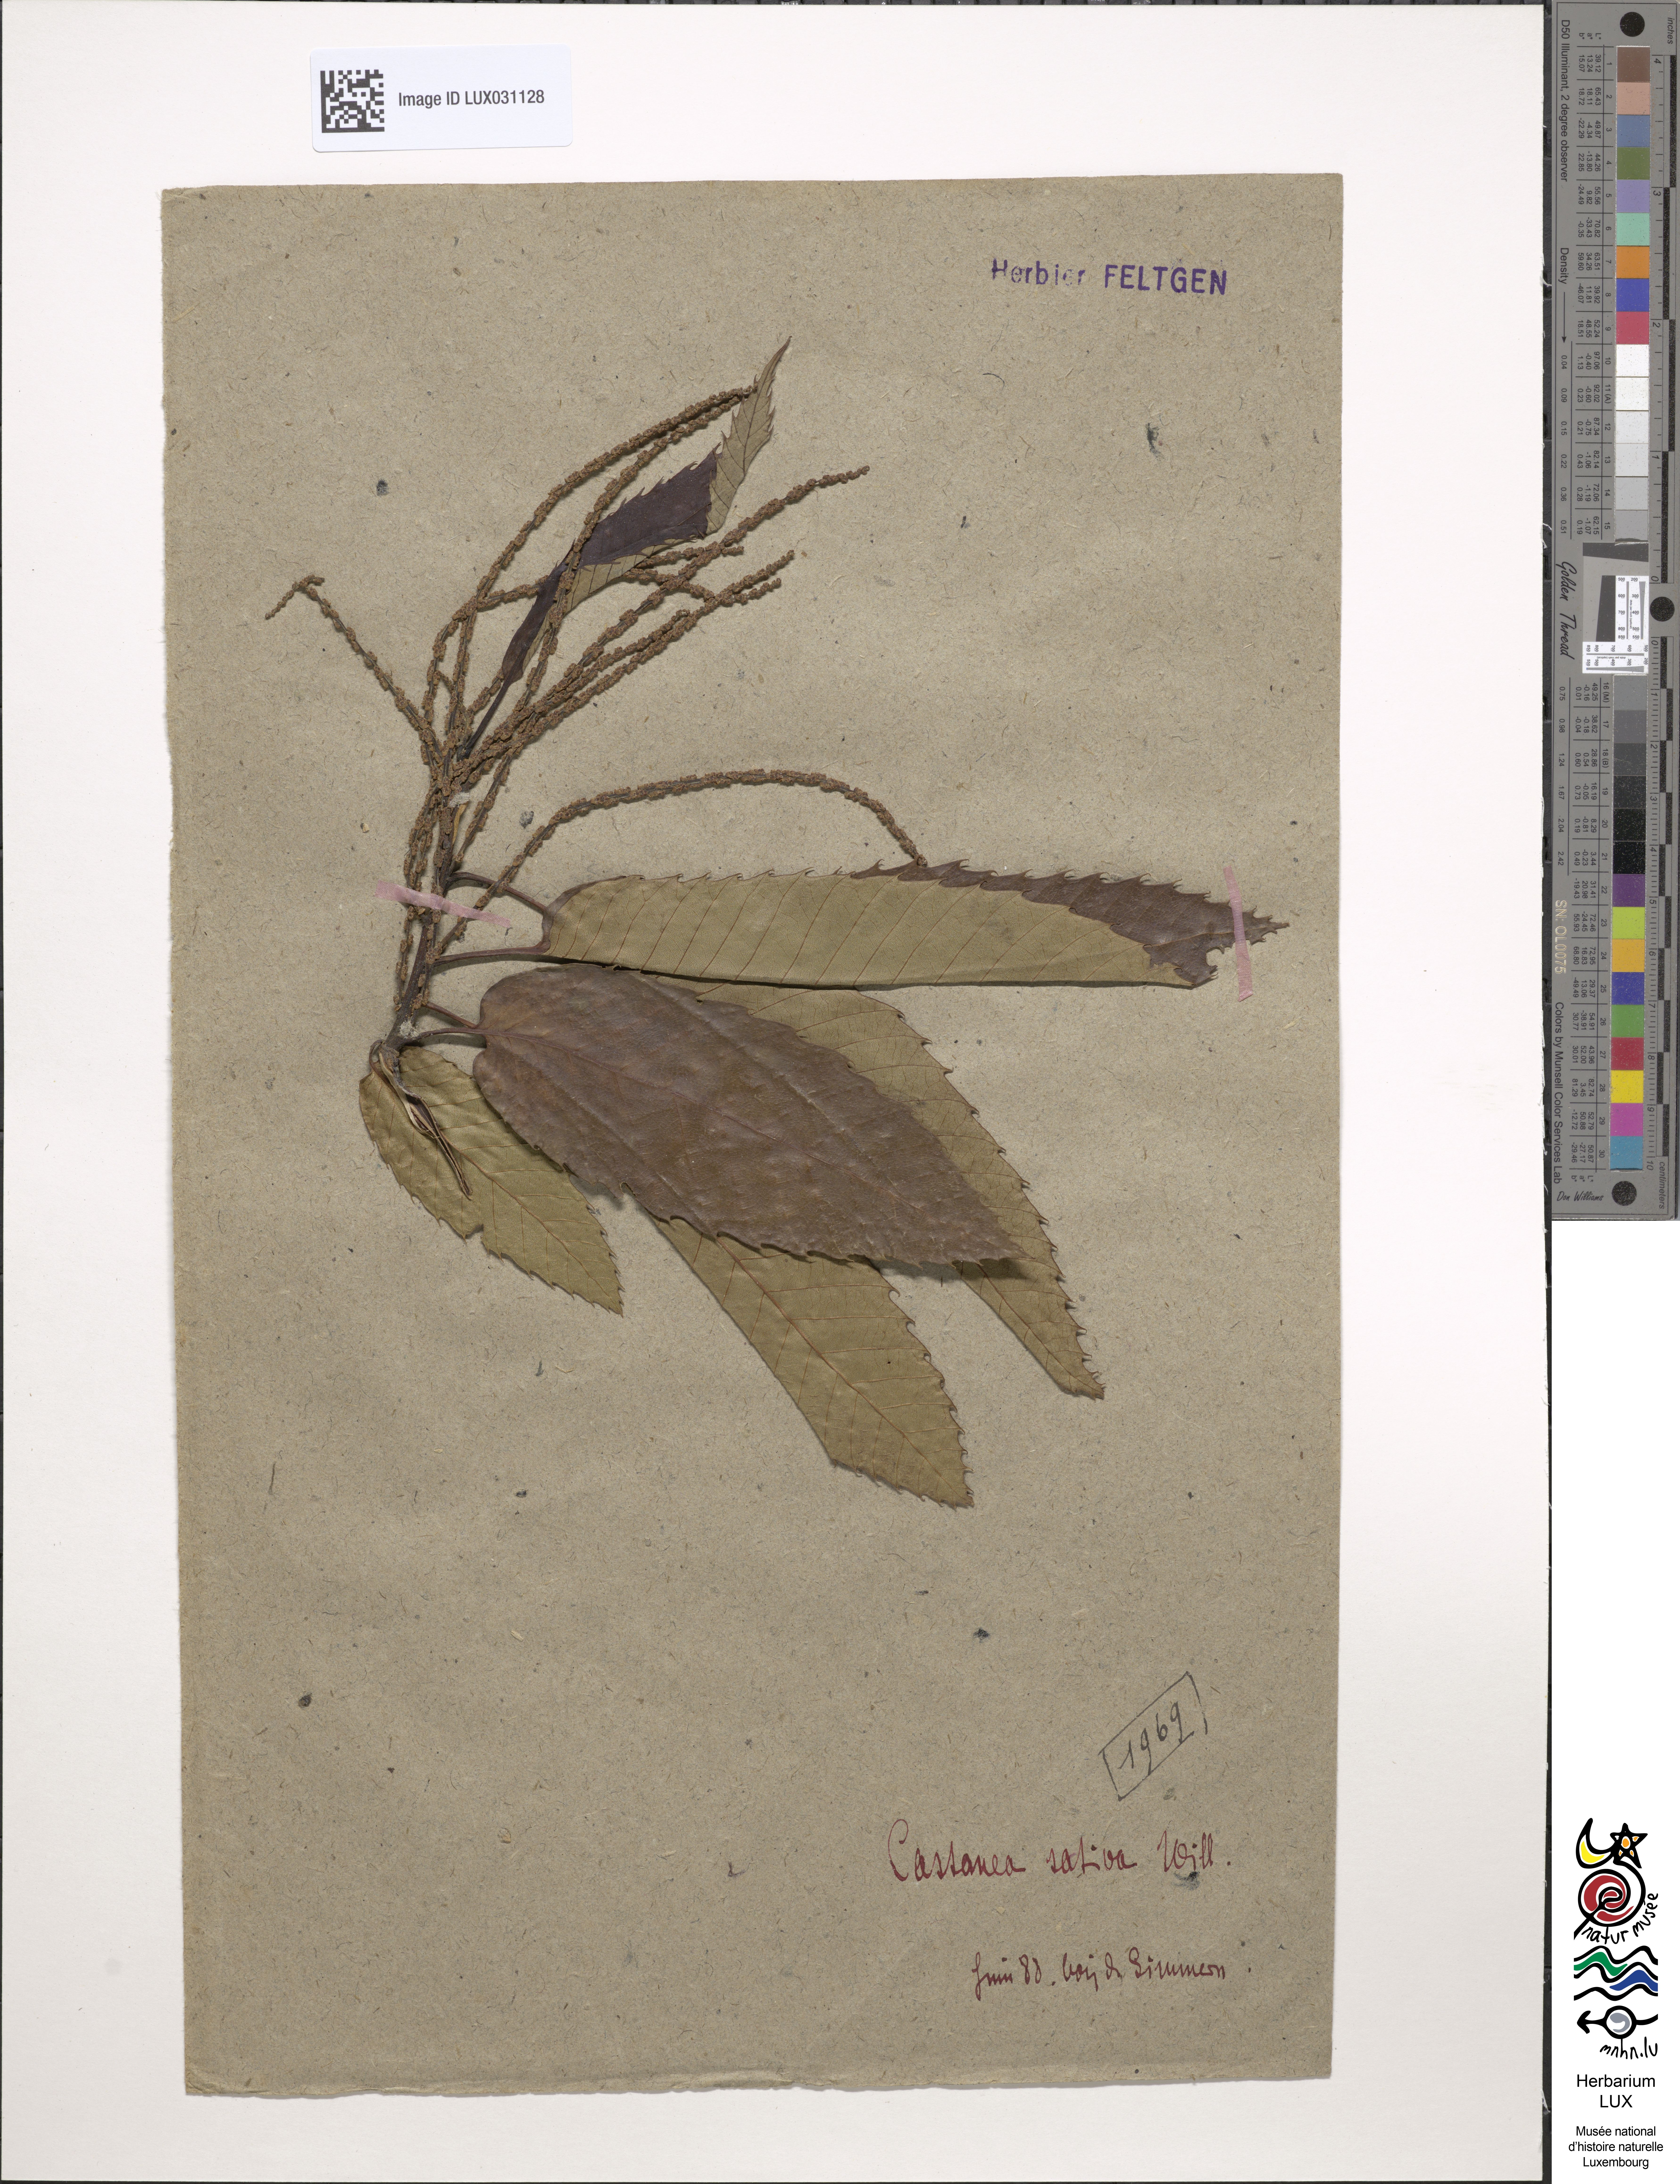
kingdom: Plantae
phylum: Tracheophyta
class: Magnoliopsida
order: Fagales
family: Fagaceae
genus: Castanea
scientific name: Castanea sativa
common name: Sweet chestnut
